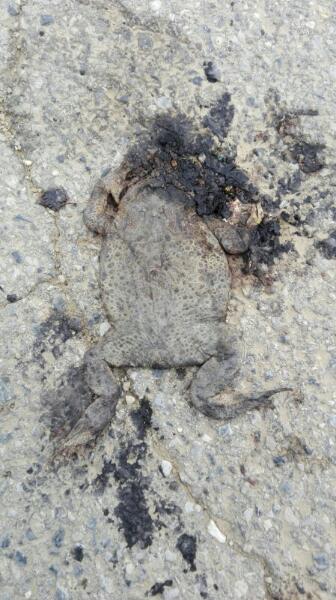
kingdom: Animalia
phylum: Chordata
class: Amphibia
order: Anura
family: Bufonidae
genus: Bufo
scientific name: Bufo bufo
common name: Common toad
